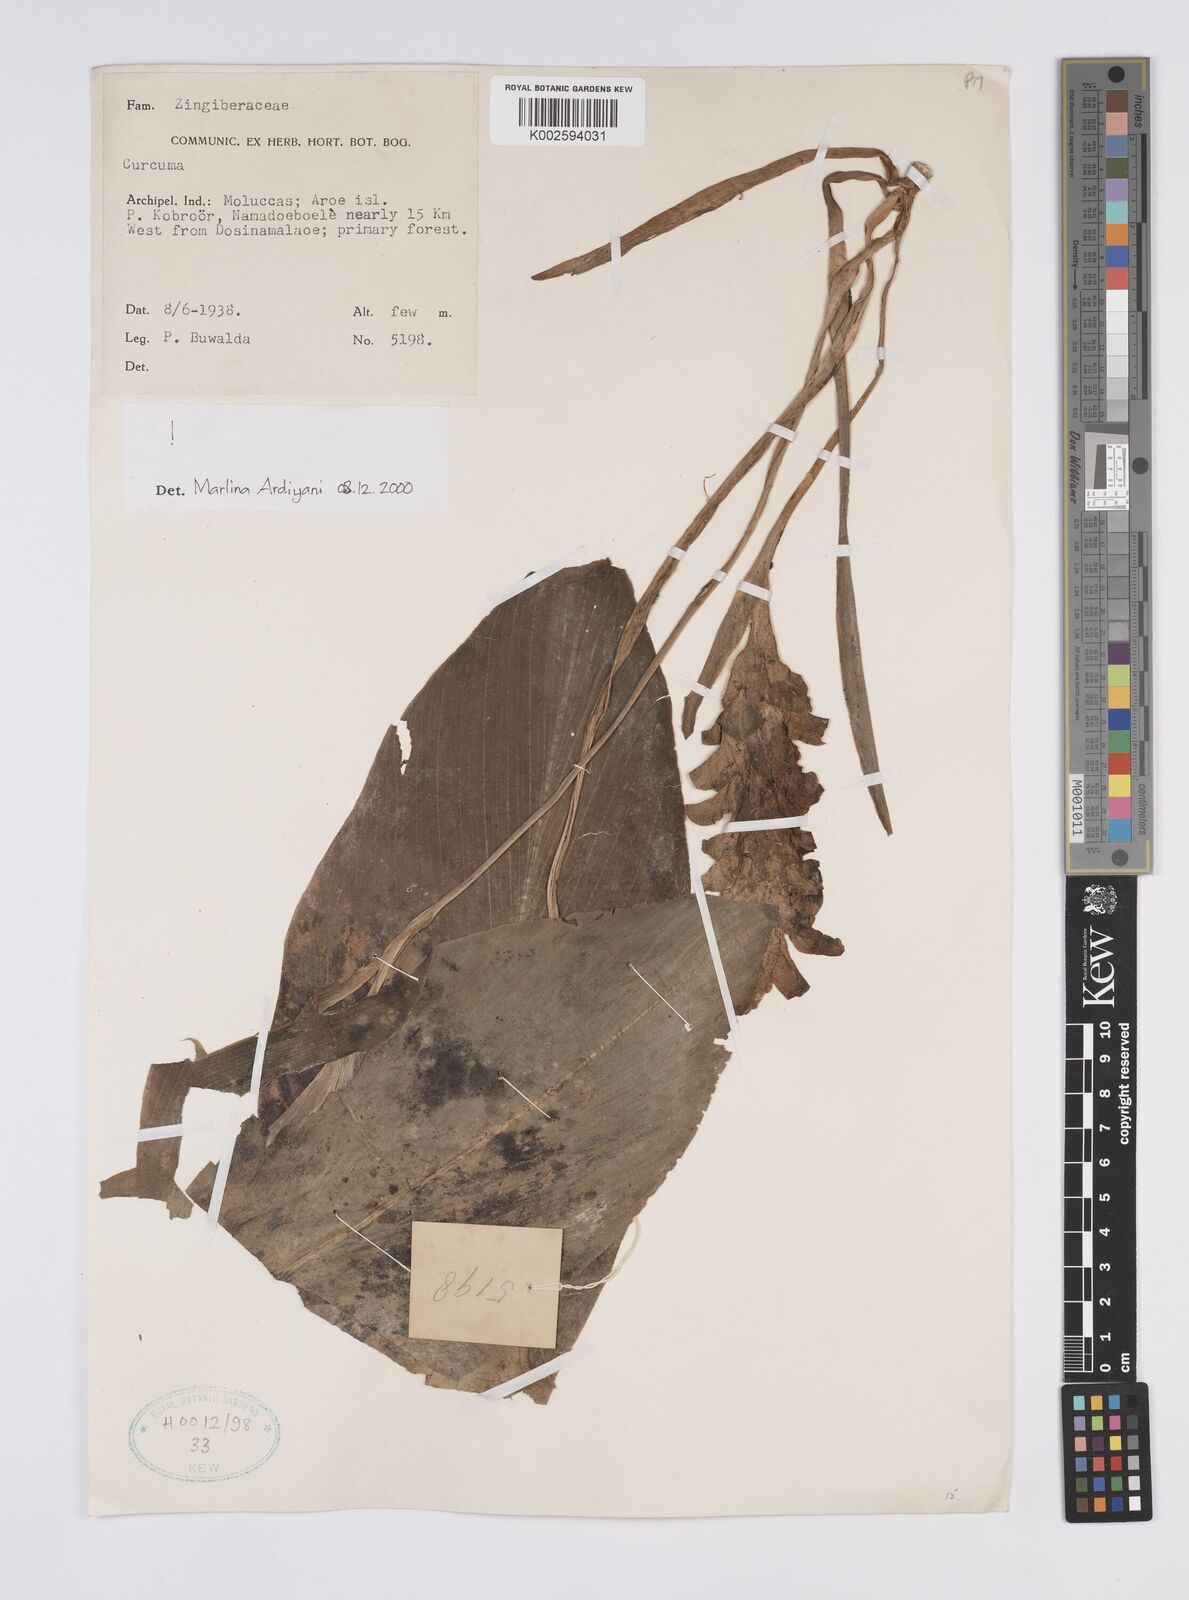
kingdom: Plantae
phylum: Tracheophyta
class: Liliopsida
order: Zingiberales
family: Zingiberaceae
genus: Curcuma
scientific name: Curcuma
